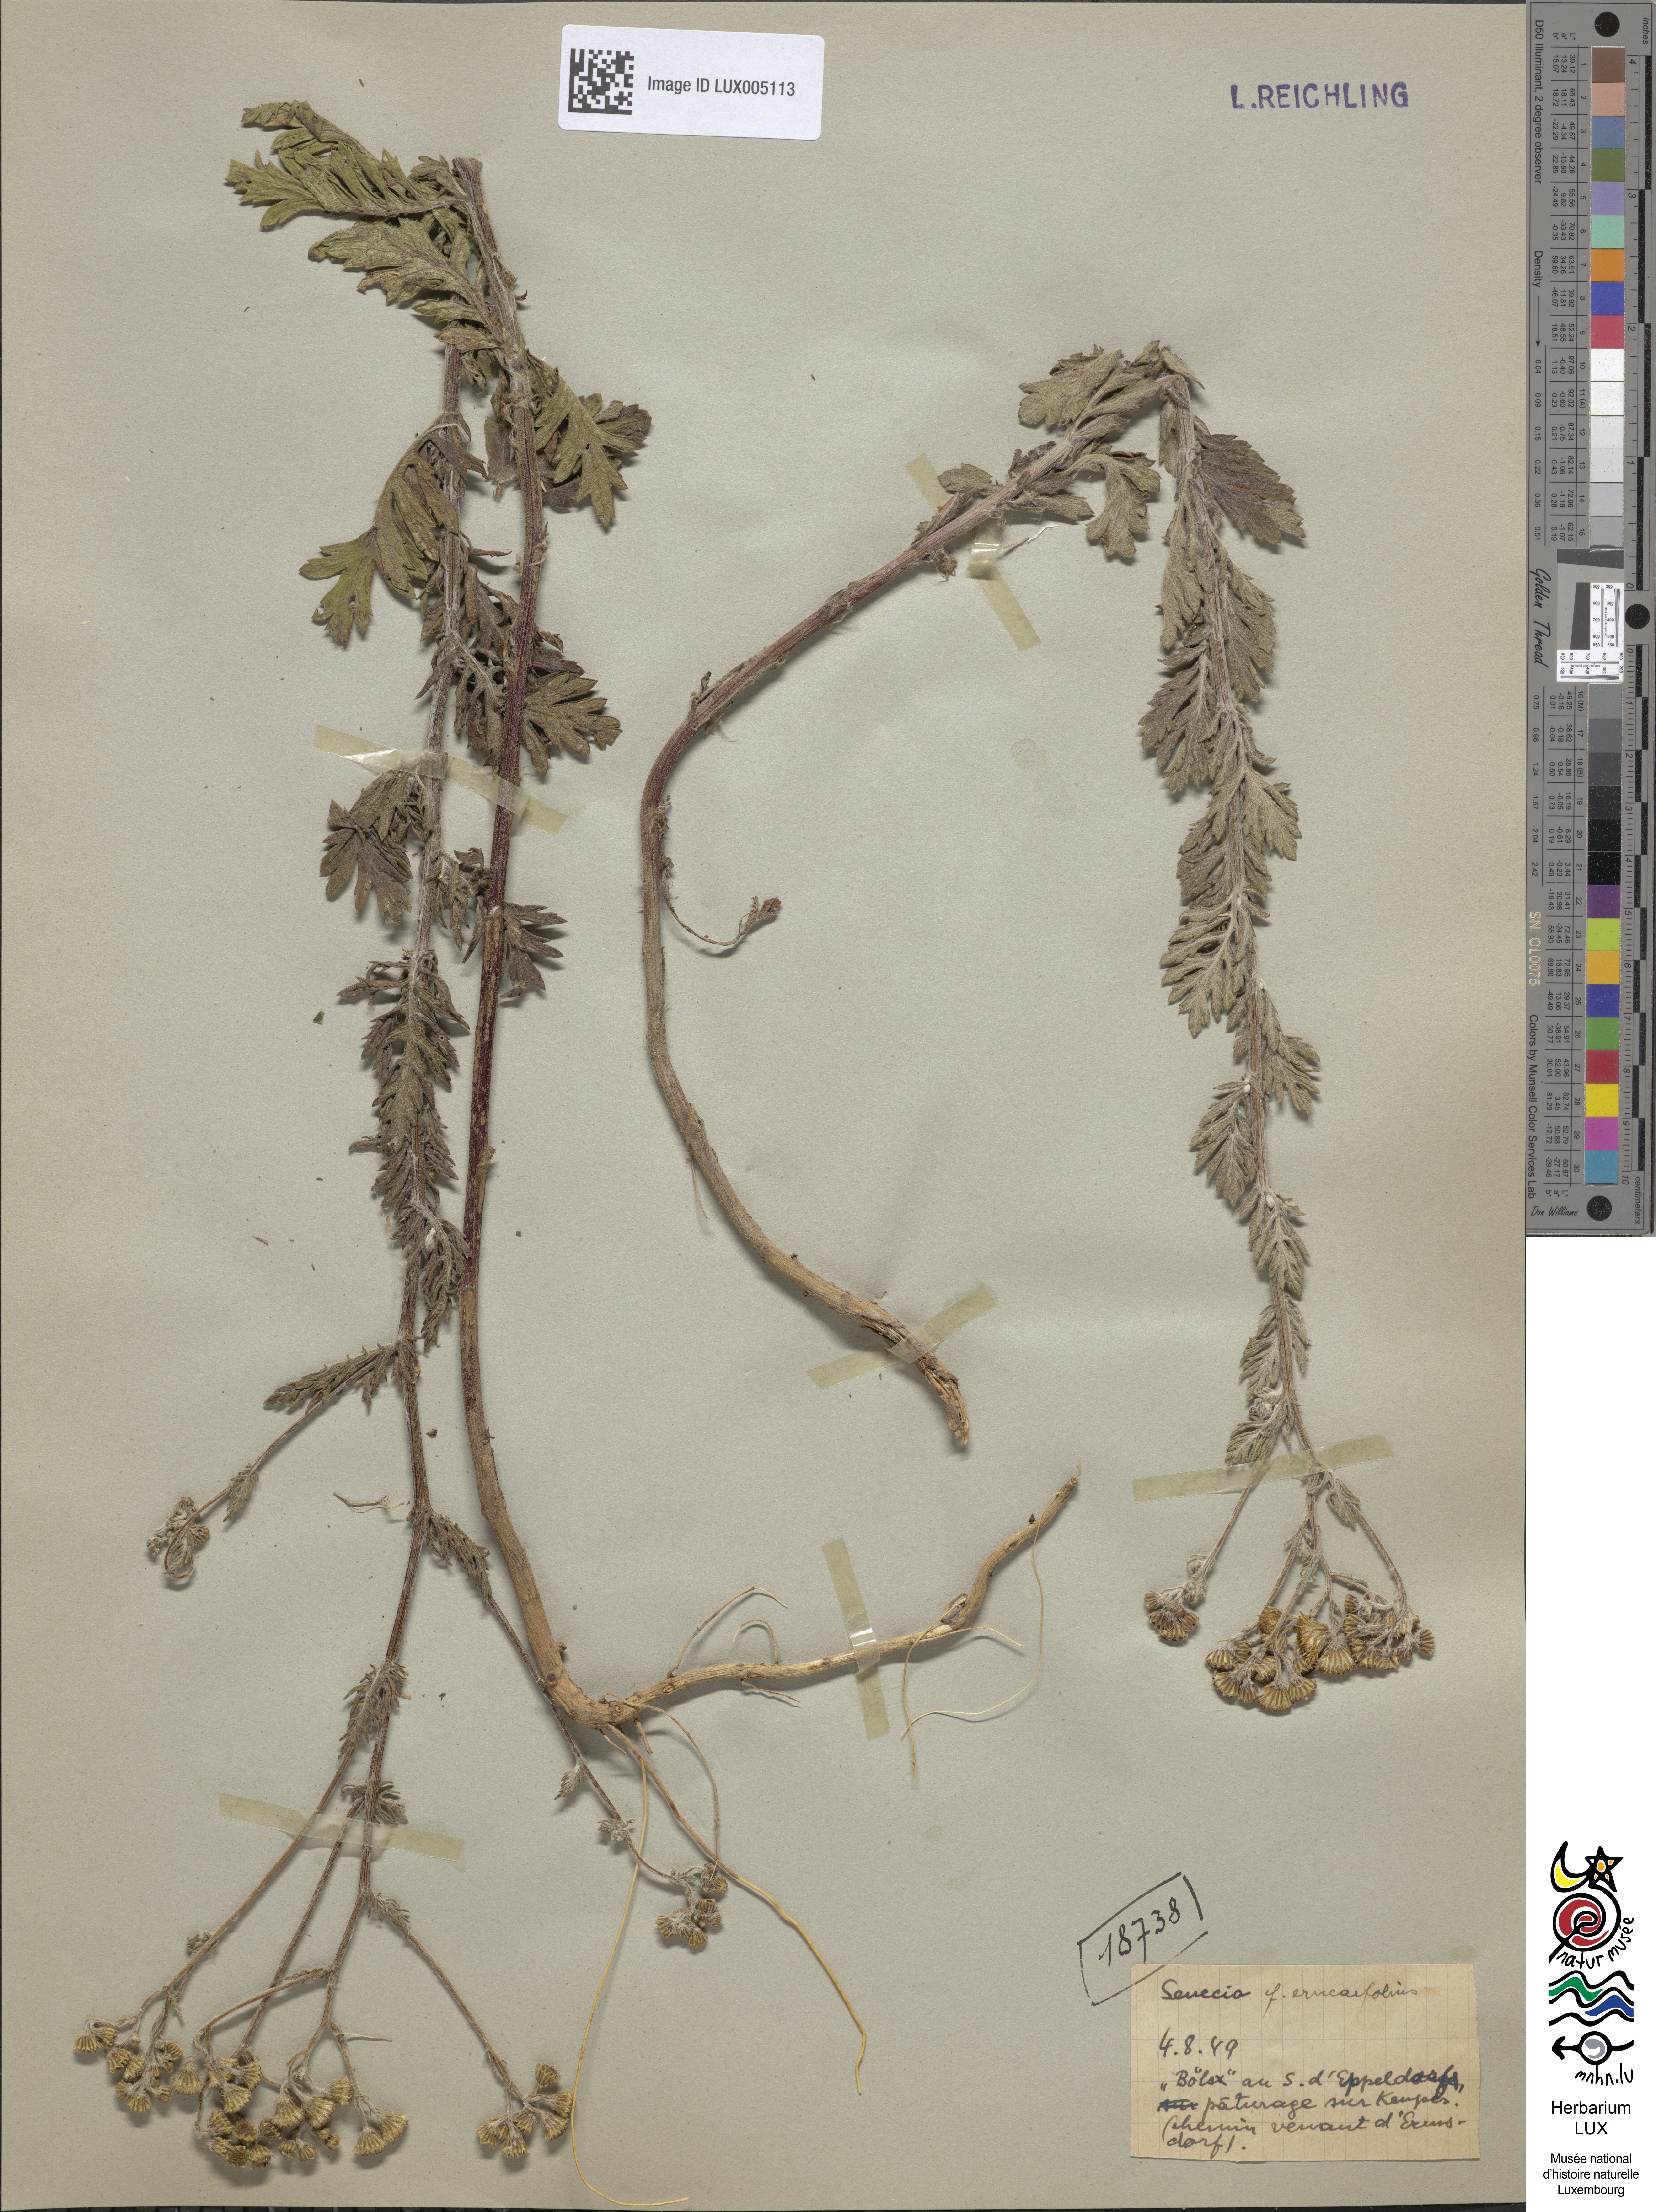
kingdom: Plantae
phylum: Tracheophyta
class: Magnoliopsida
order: Asterales
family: Asteraceae
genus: Jacobaea
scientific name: Jacobaea erucifolia
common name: Hoary ragwort
